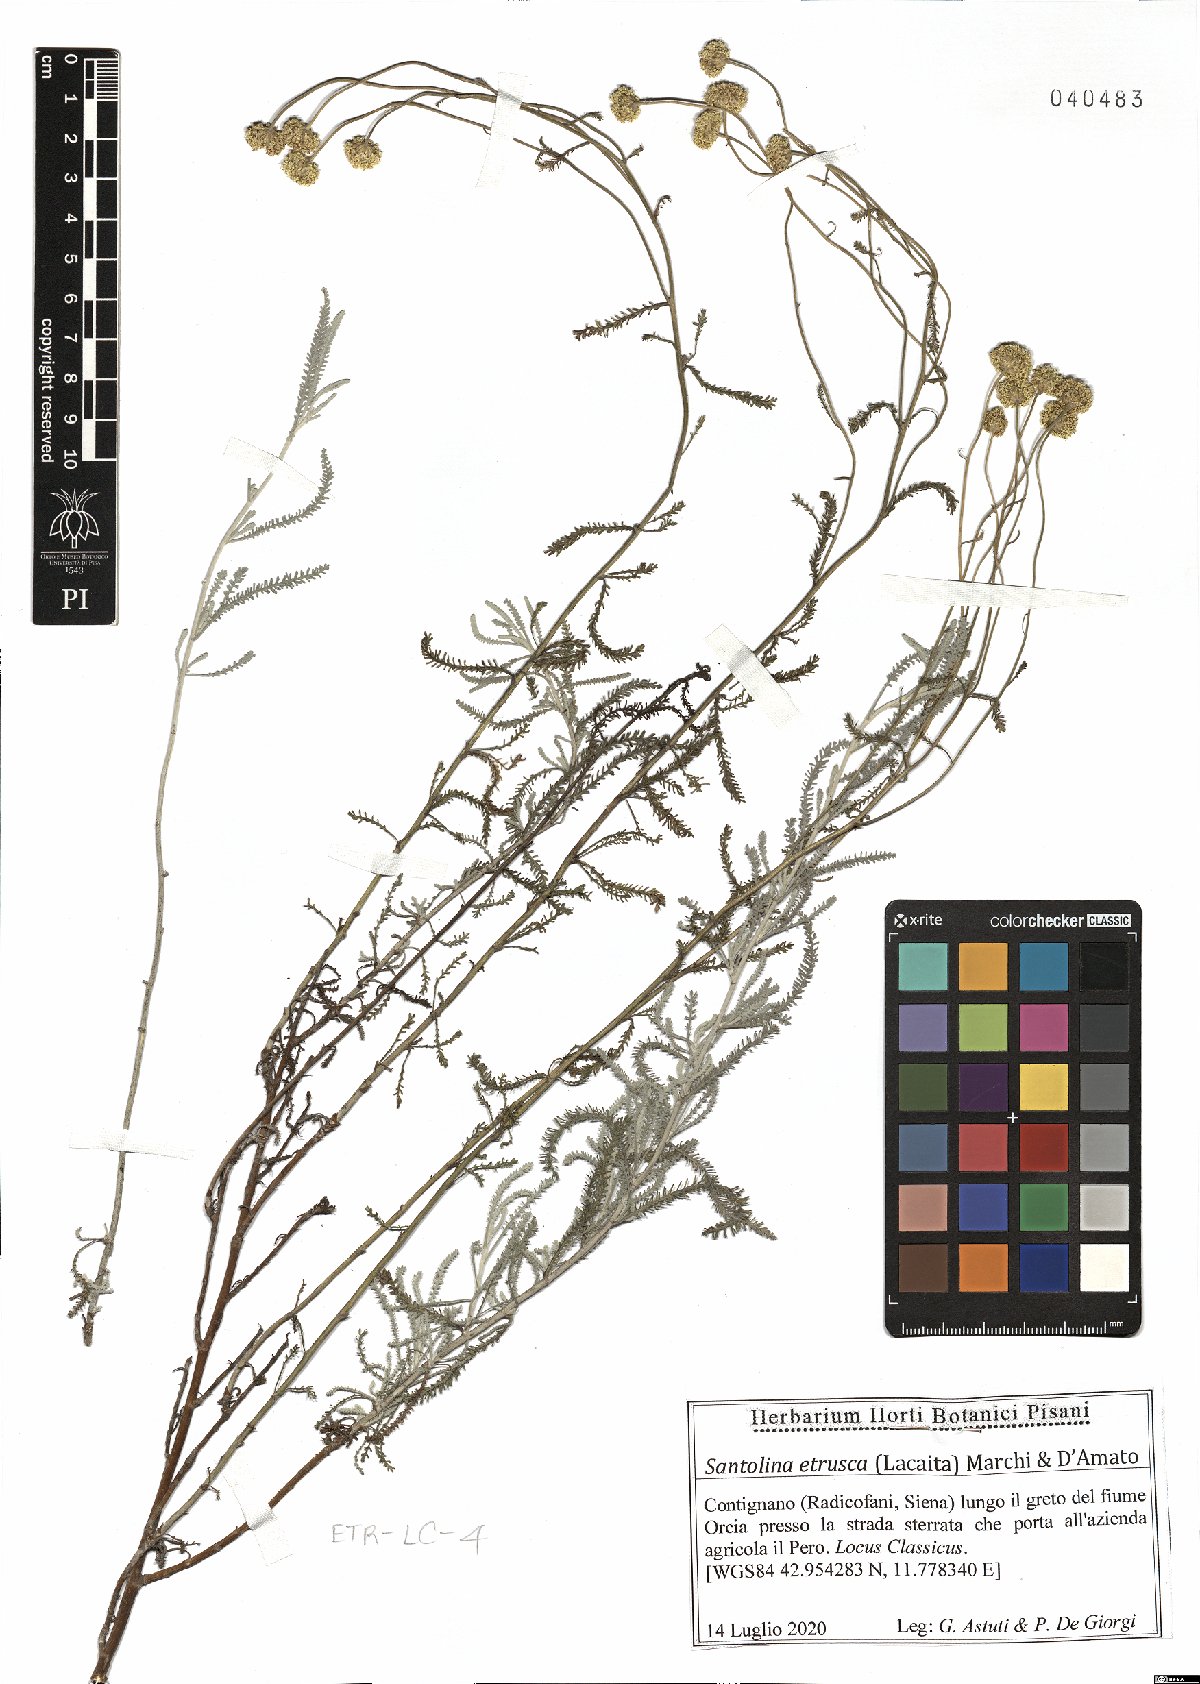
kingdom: Plantae
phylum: Tracheophyta
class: Magnoliopsida
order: Asterales
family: Asteraceae
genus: Santolina
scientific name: Santolina etrusca
